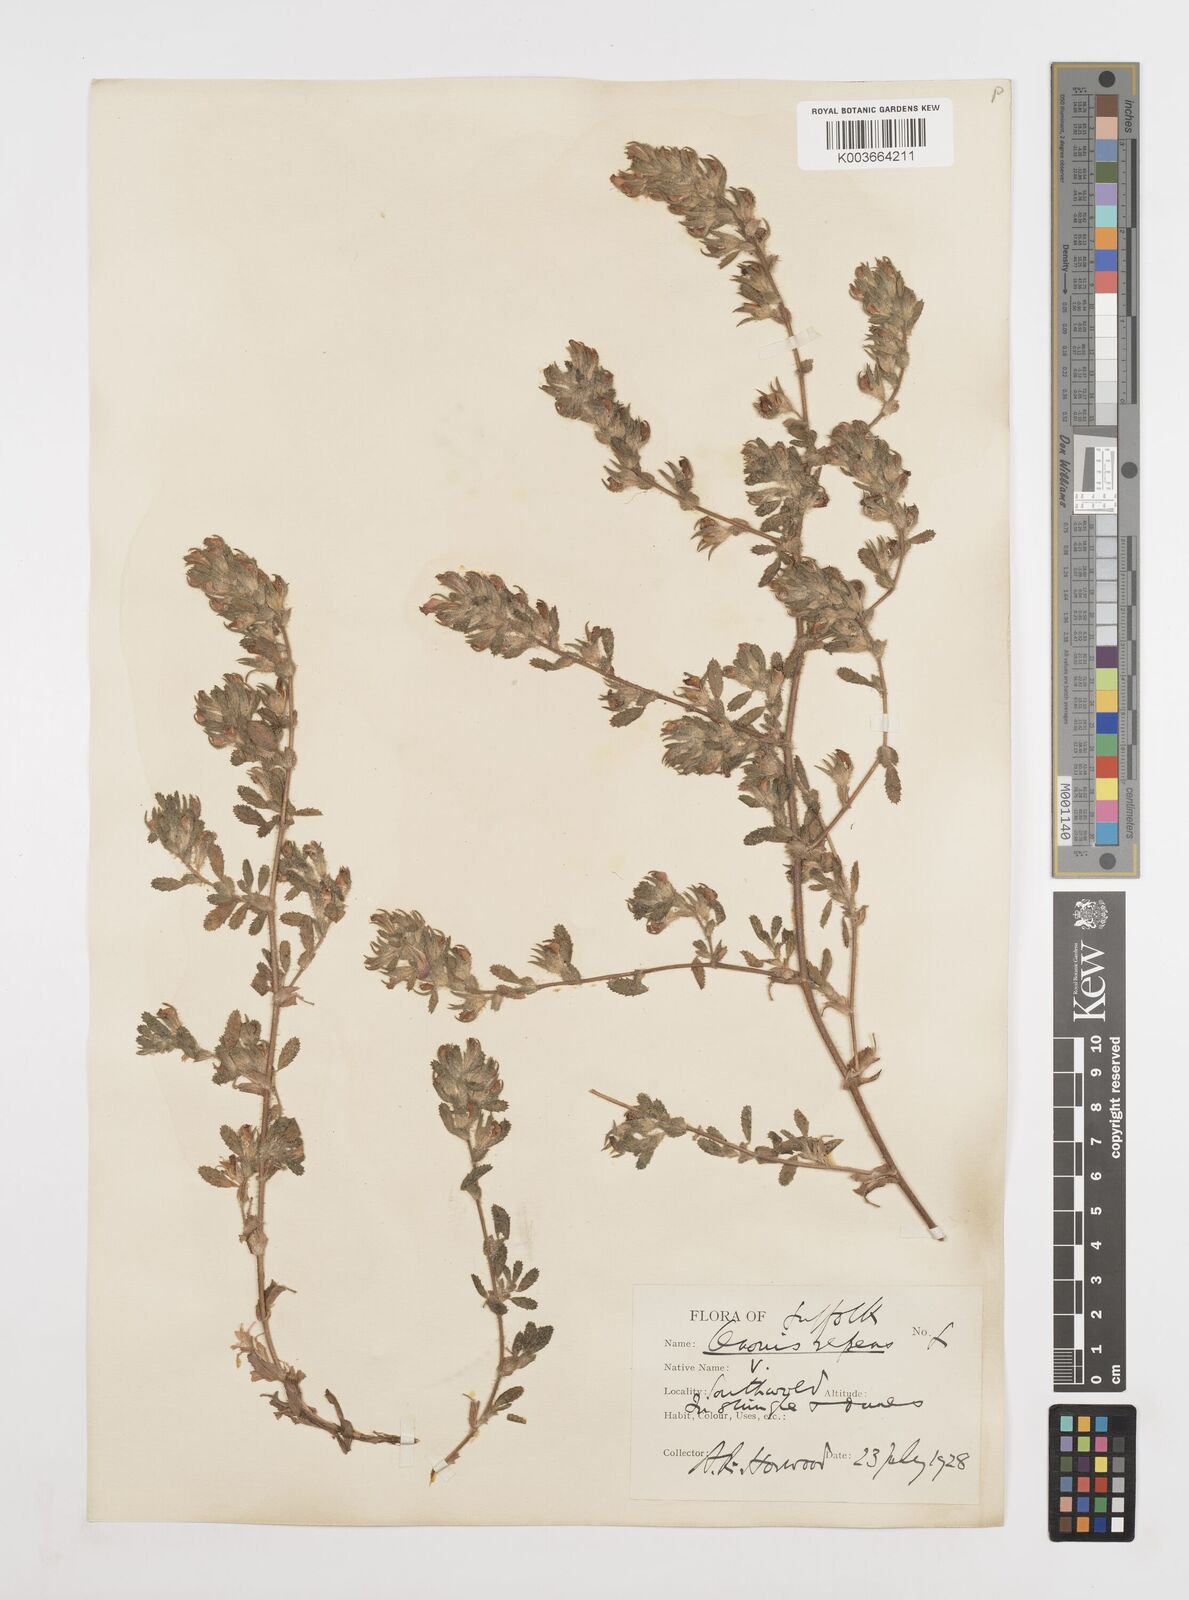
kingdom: Plantae
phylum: Tracheophyta
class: Magnoliopsida
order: Fabales
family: Fabaceae
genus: Ononis
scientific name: Ononis spinosa
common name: Spiny restharrow
